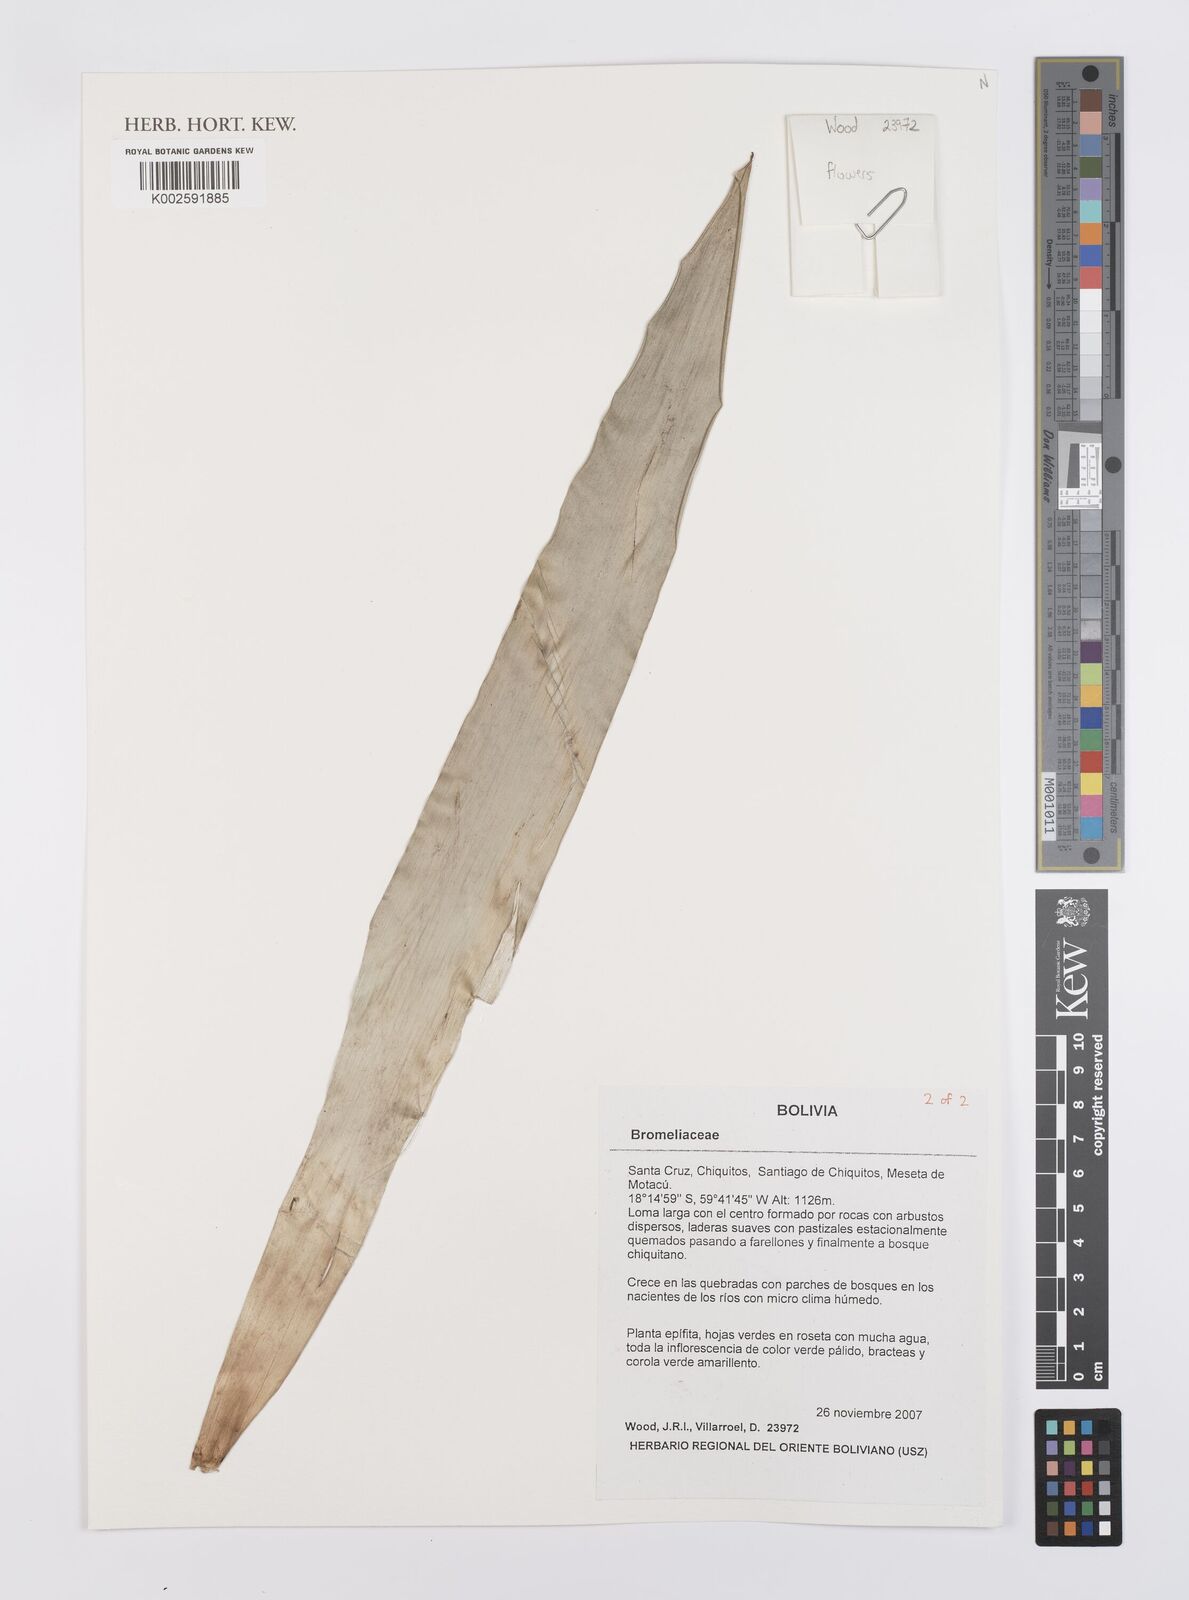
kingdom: Plantae
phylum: Tracheophyta
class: Liliopsida
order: Poales
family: Bromeliaceae
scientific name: Bromeliaceae
